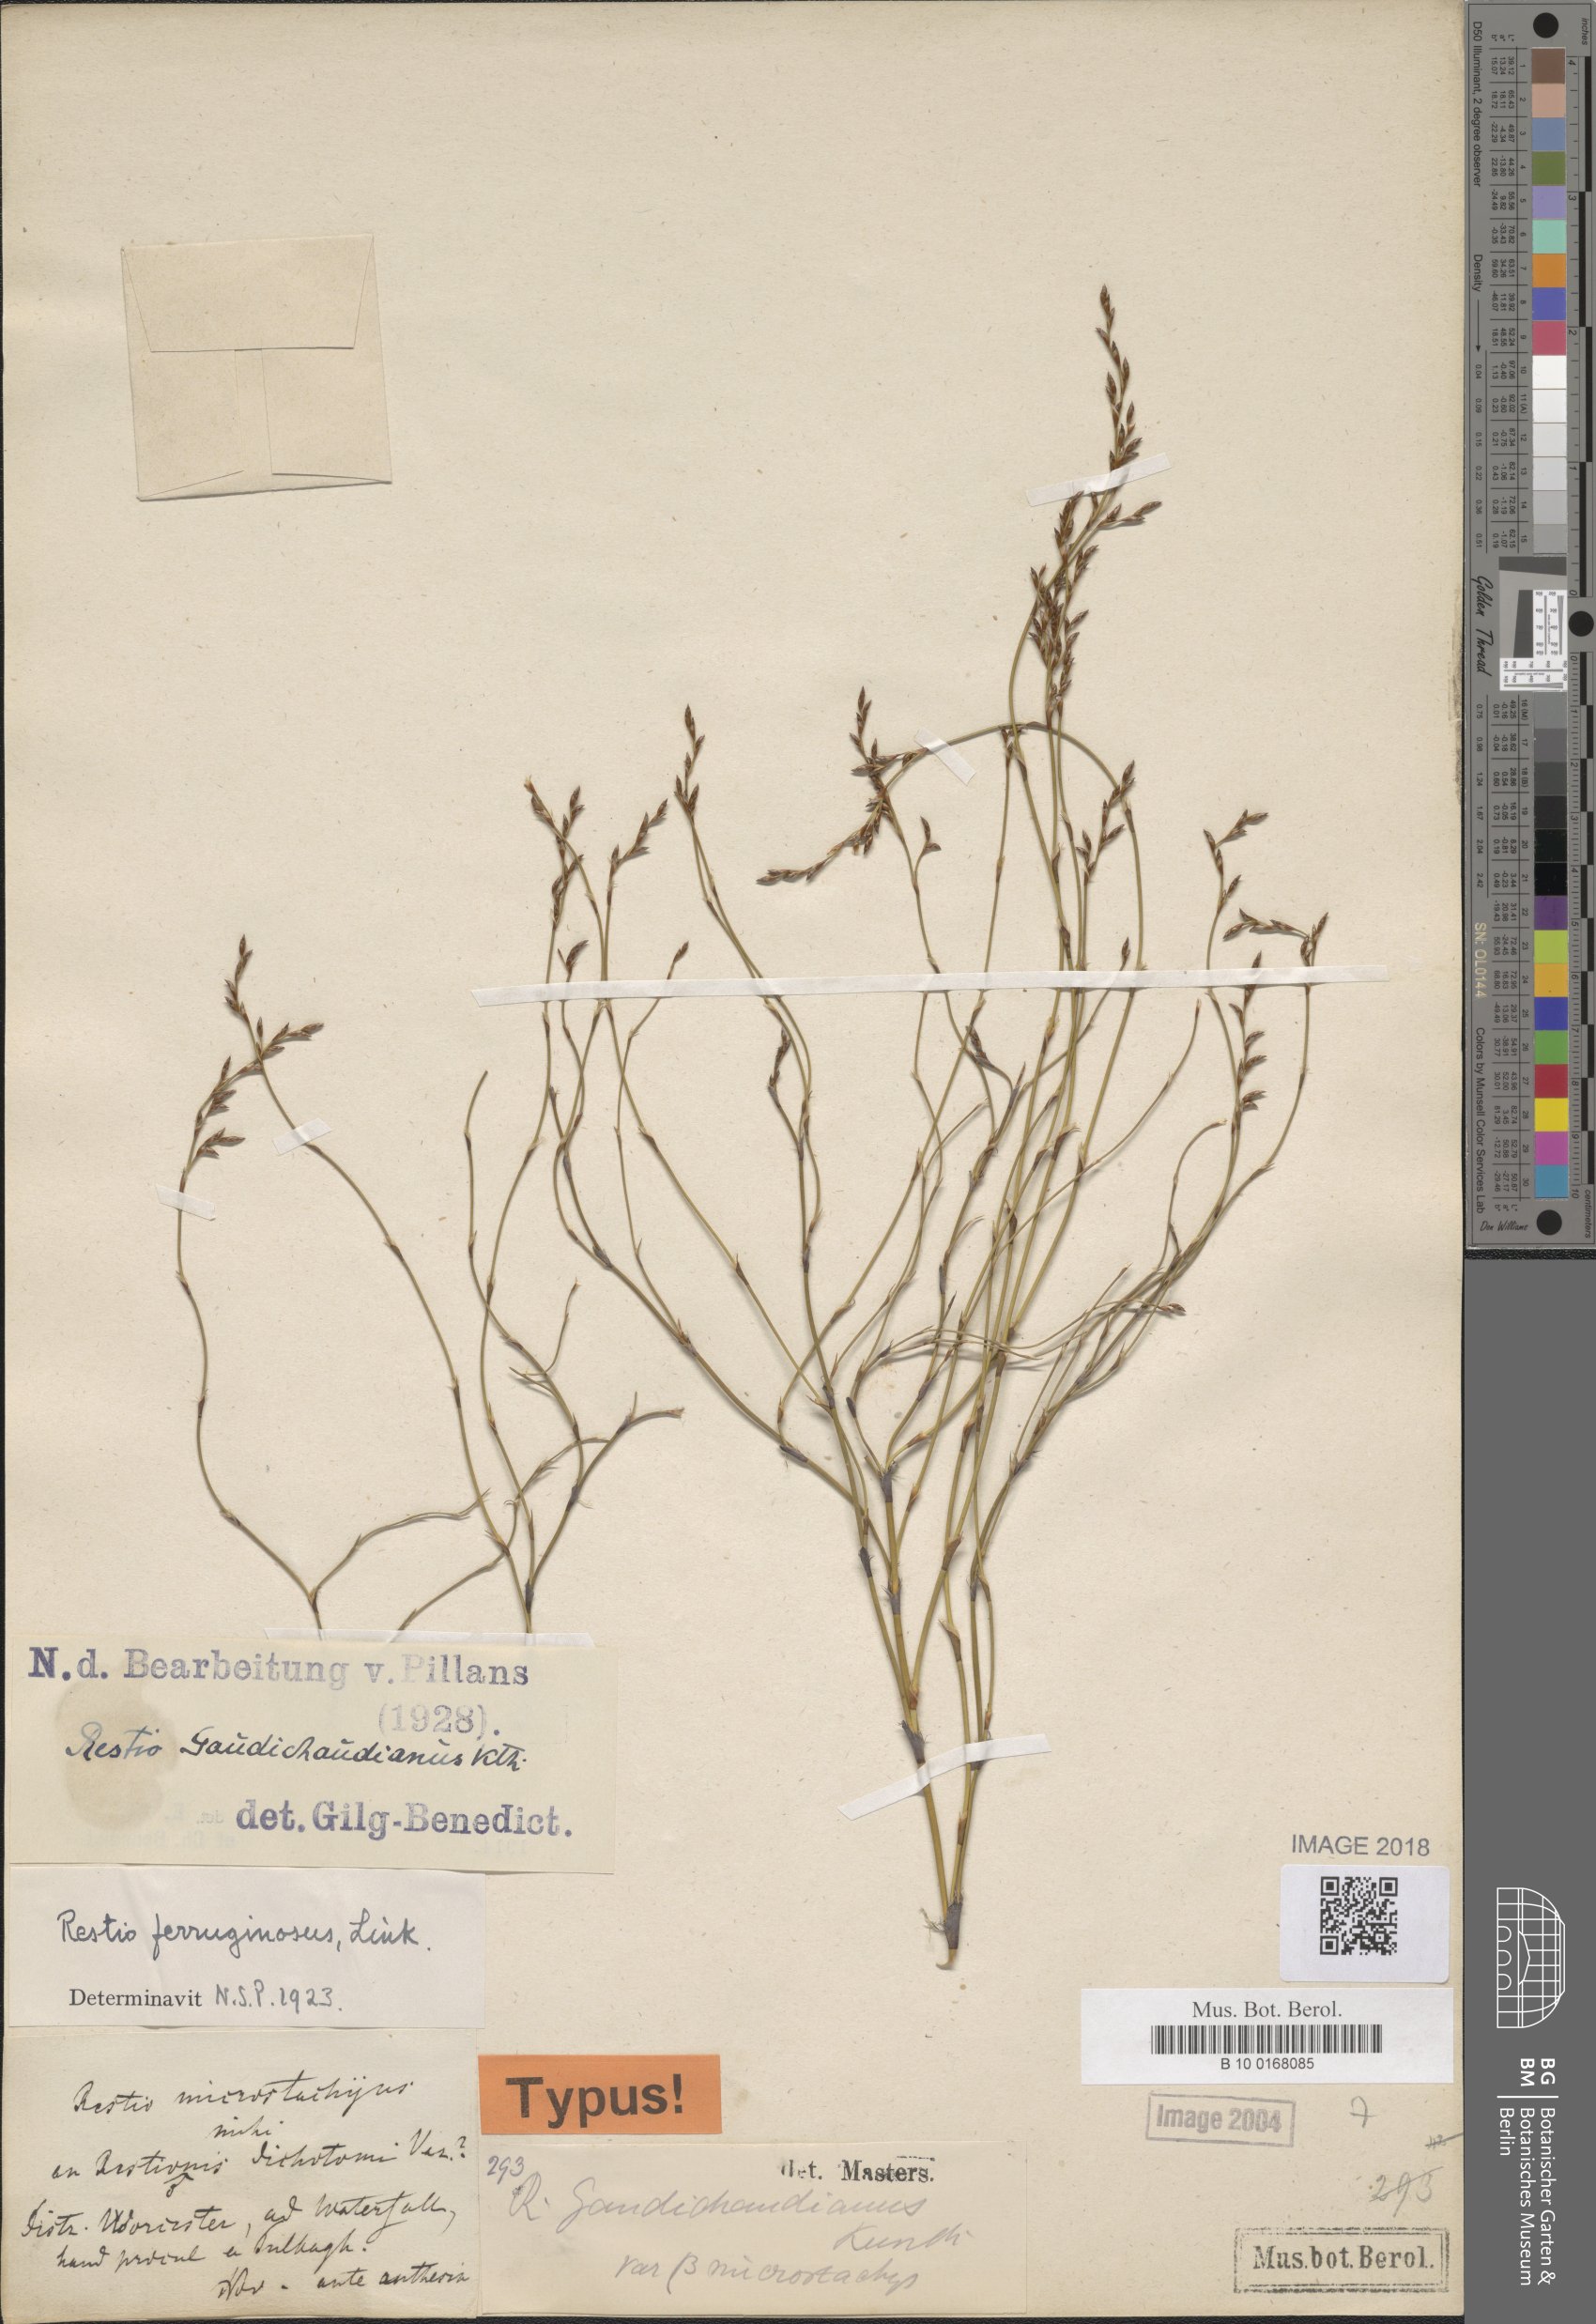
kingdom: Plantae
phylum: Tracheophyta
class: Liliopsida
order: Poales
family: Restionaceae
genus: Restio
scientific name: Restio gaudichaudianus
